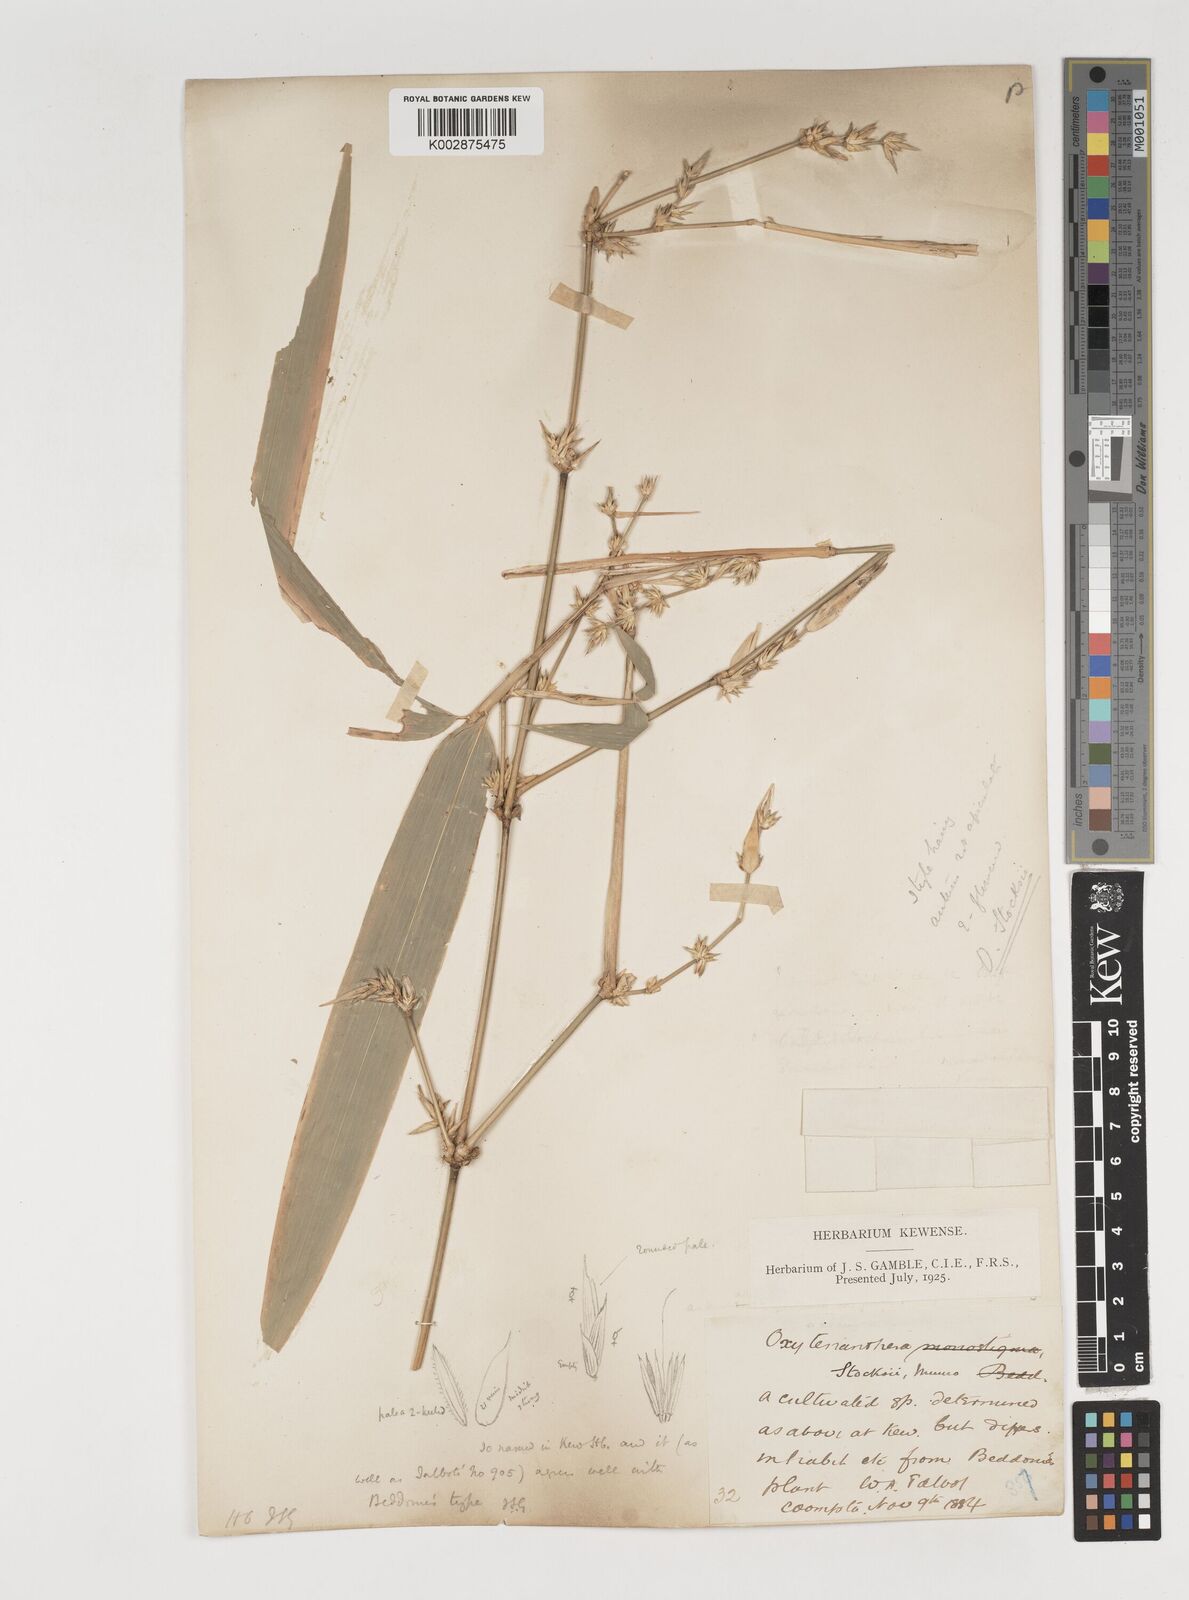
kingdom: Plantae
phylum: Tracheophyta
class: Liliopsida
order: Poales
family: Poaceae
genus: Pseudoxytenanthera
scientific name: Pseudoxytenanthera stocksii
